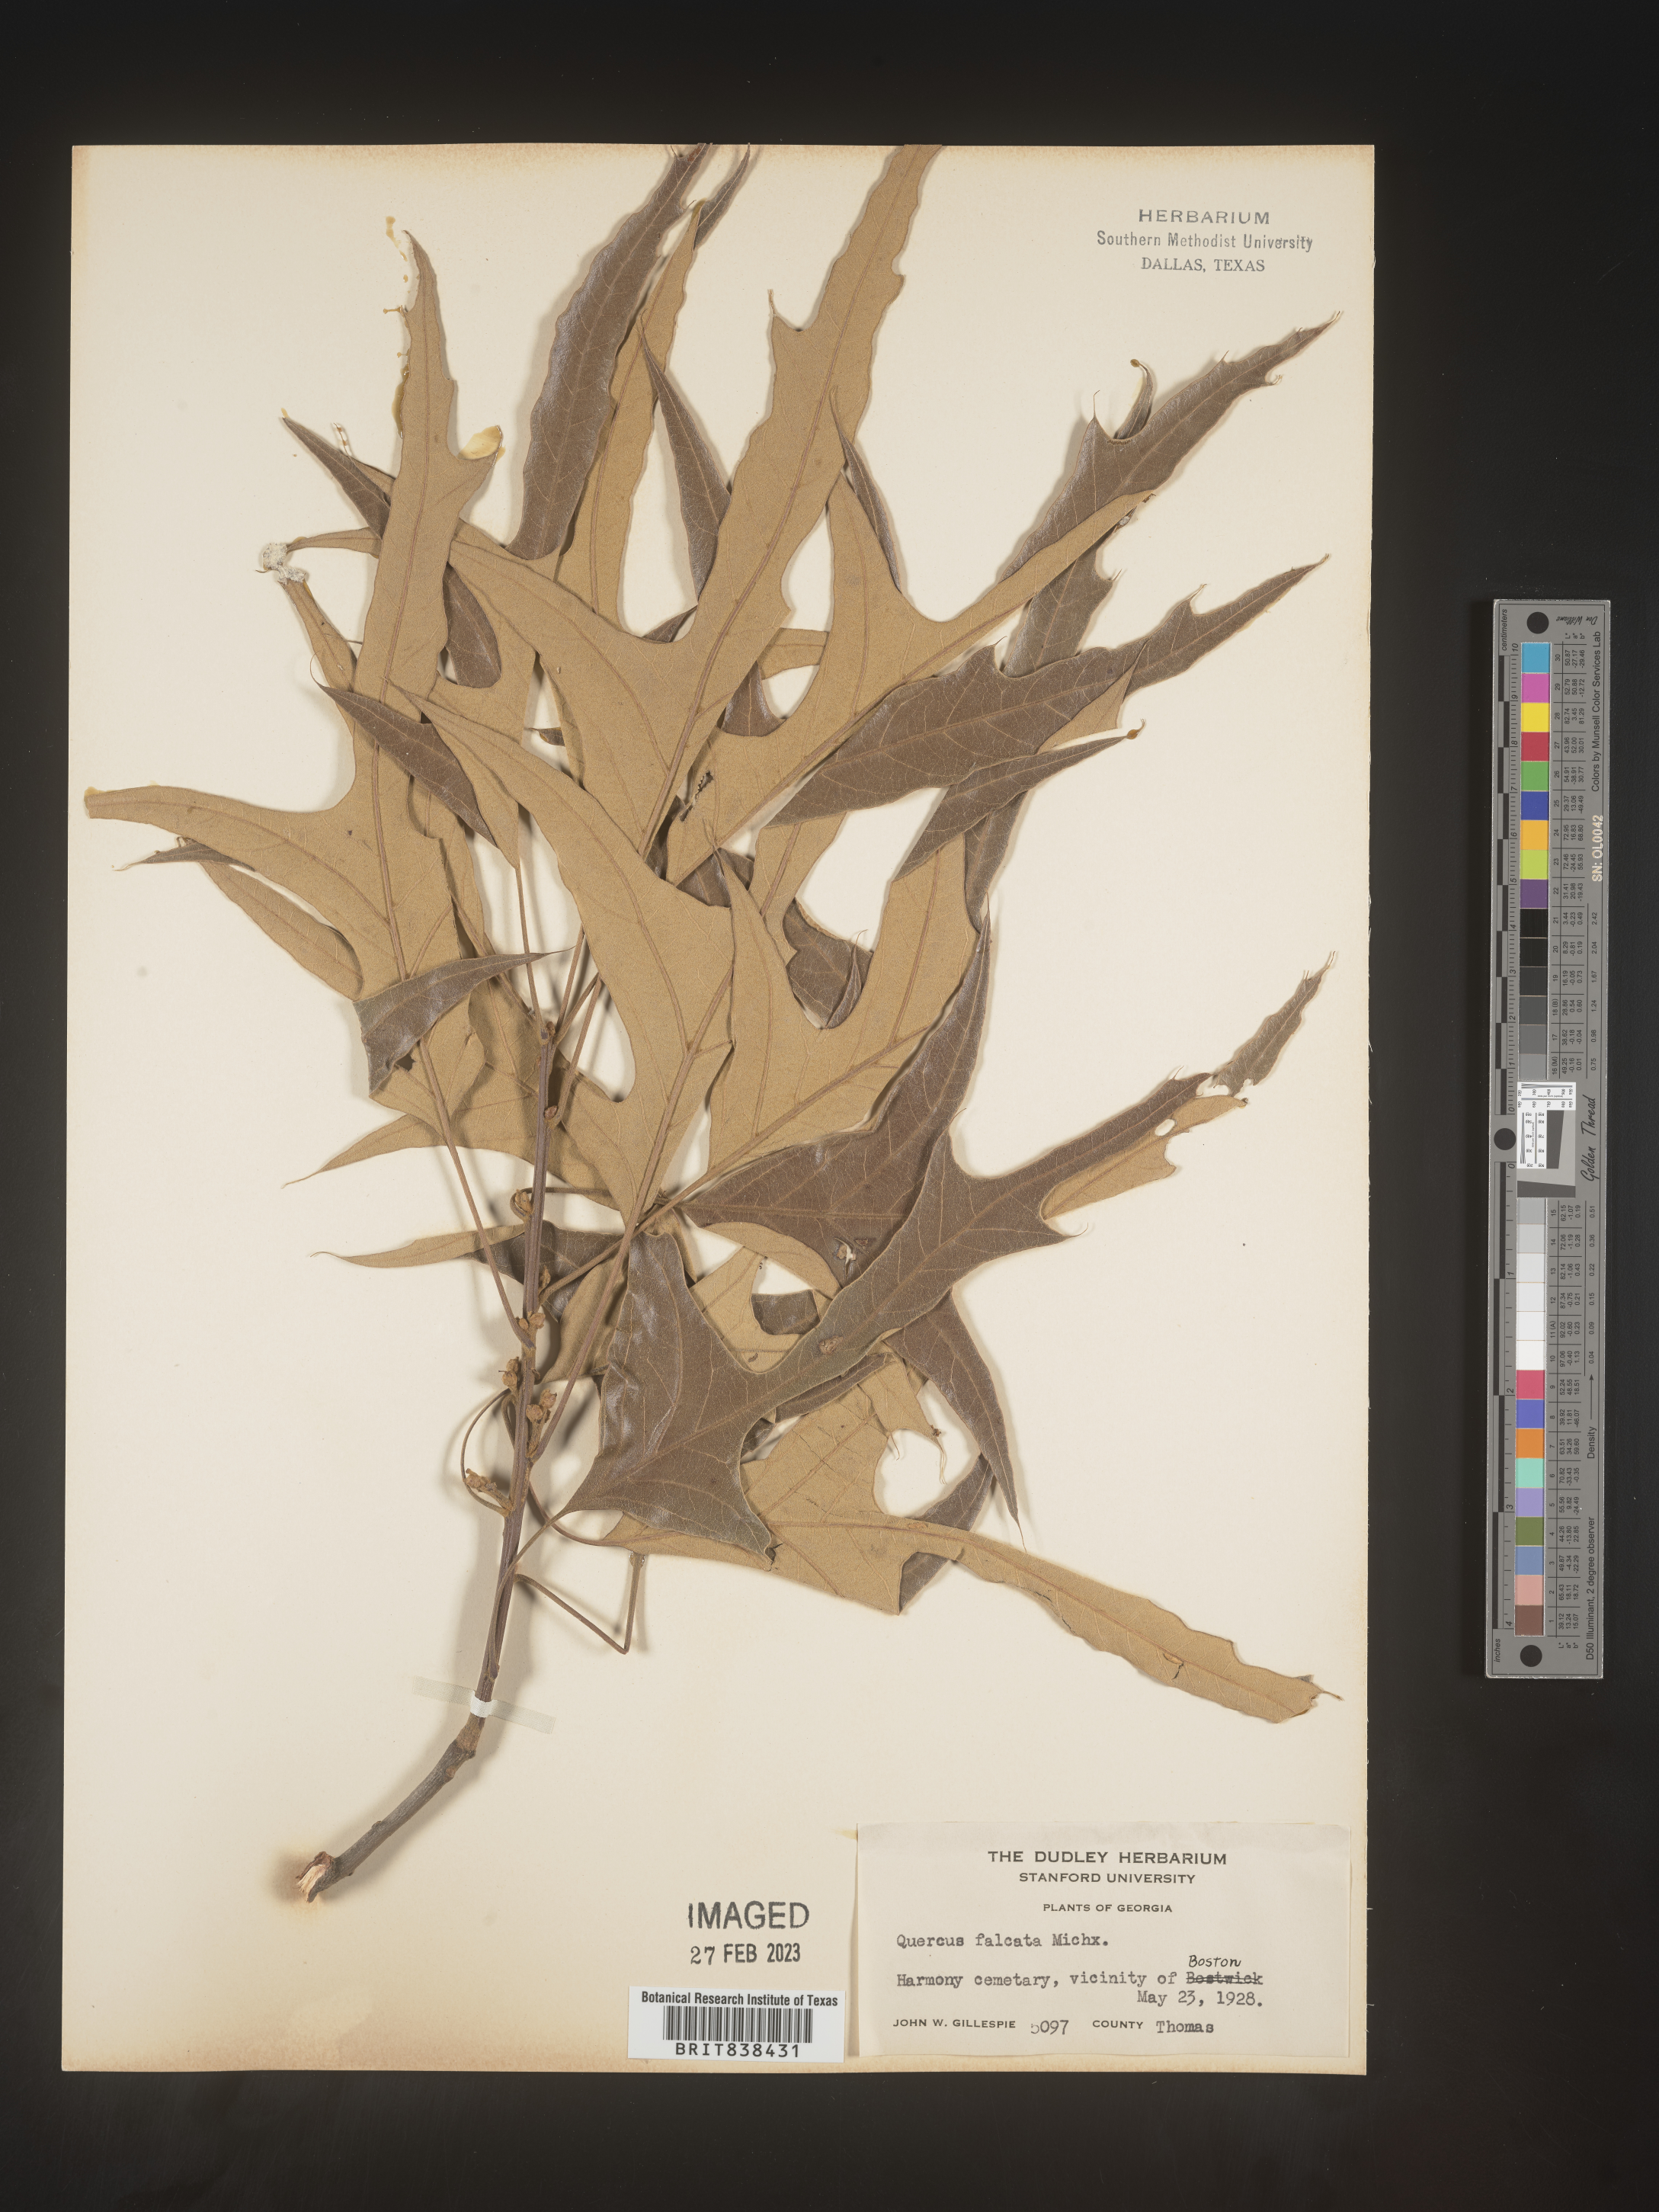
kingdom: Plantae
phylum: Tracheophyta
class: Magnoliopsida
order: Fagales
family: Fagaceae
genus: Quercus
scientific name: Quercus falcata
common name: Southern red oak
